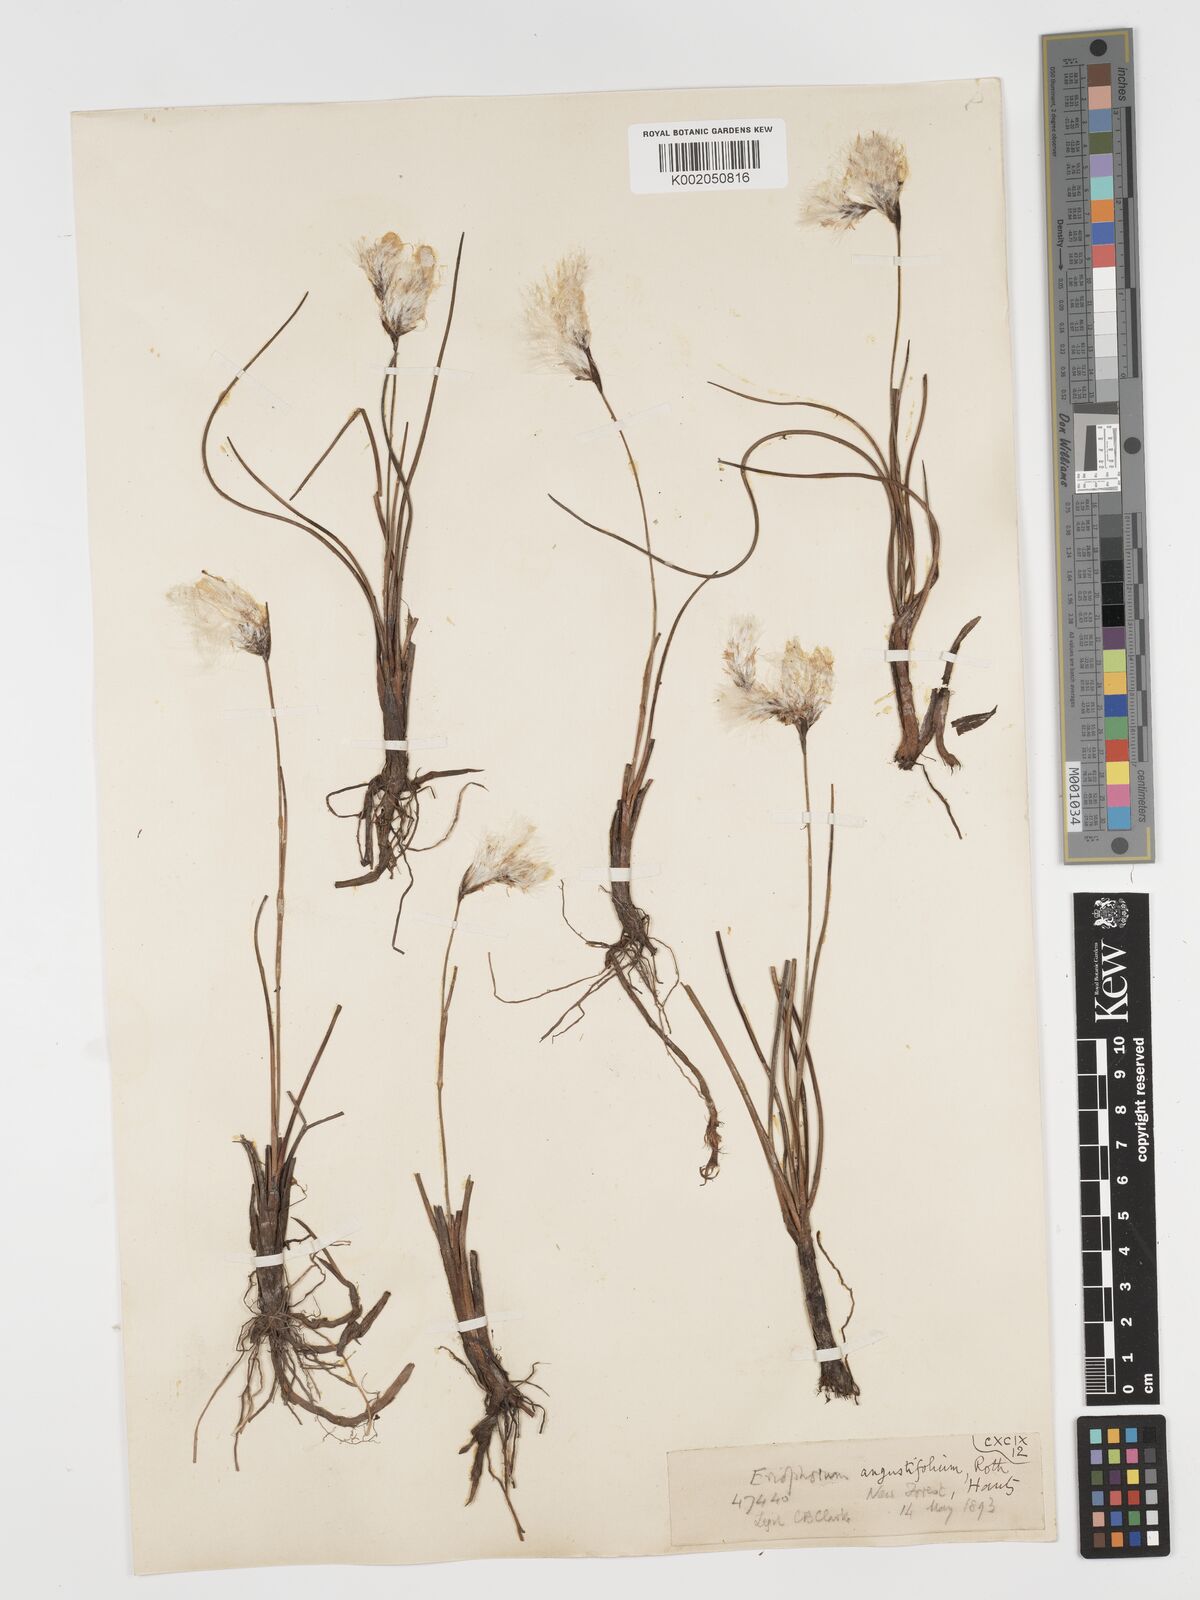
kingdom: Plantae
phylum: Tracheophyta
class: Liliopsida
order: Poales
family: Cyperaceae
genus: Eriophorum
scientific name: Eriophorum angustifolium
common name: Common cottongrass
